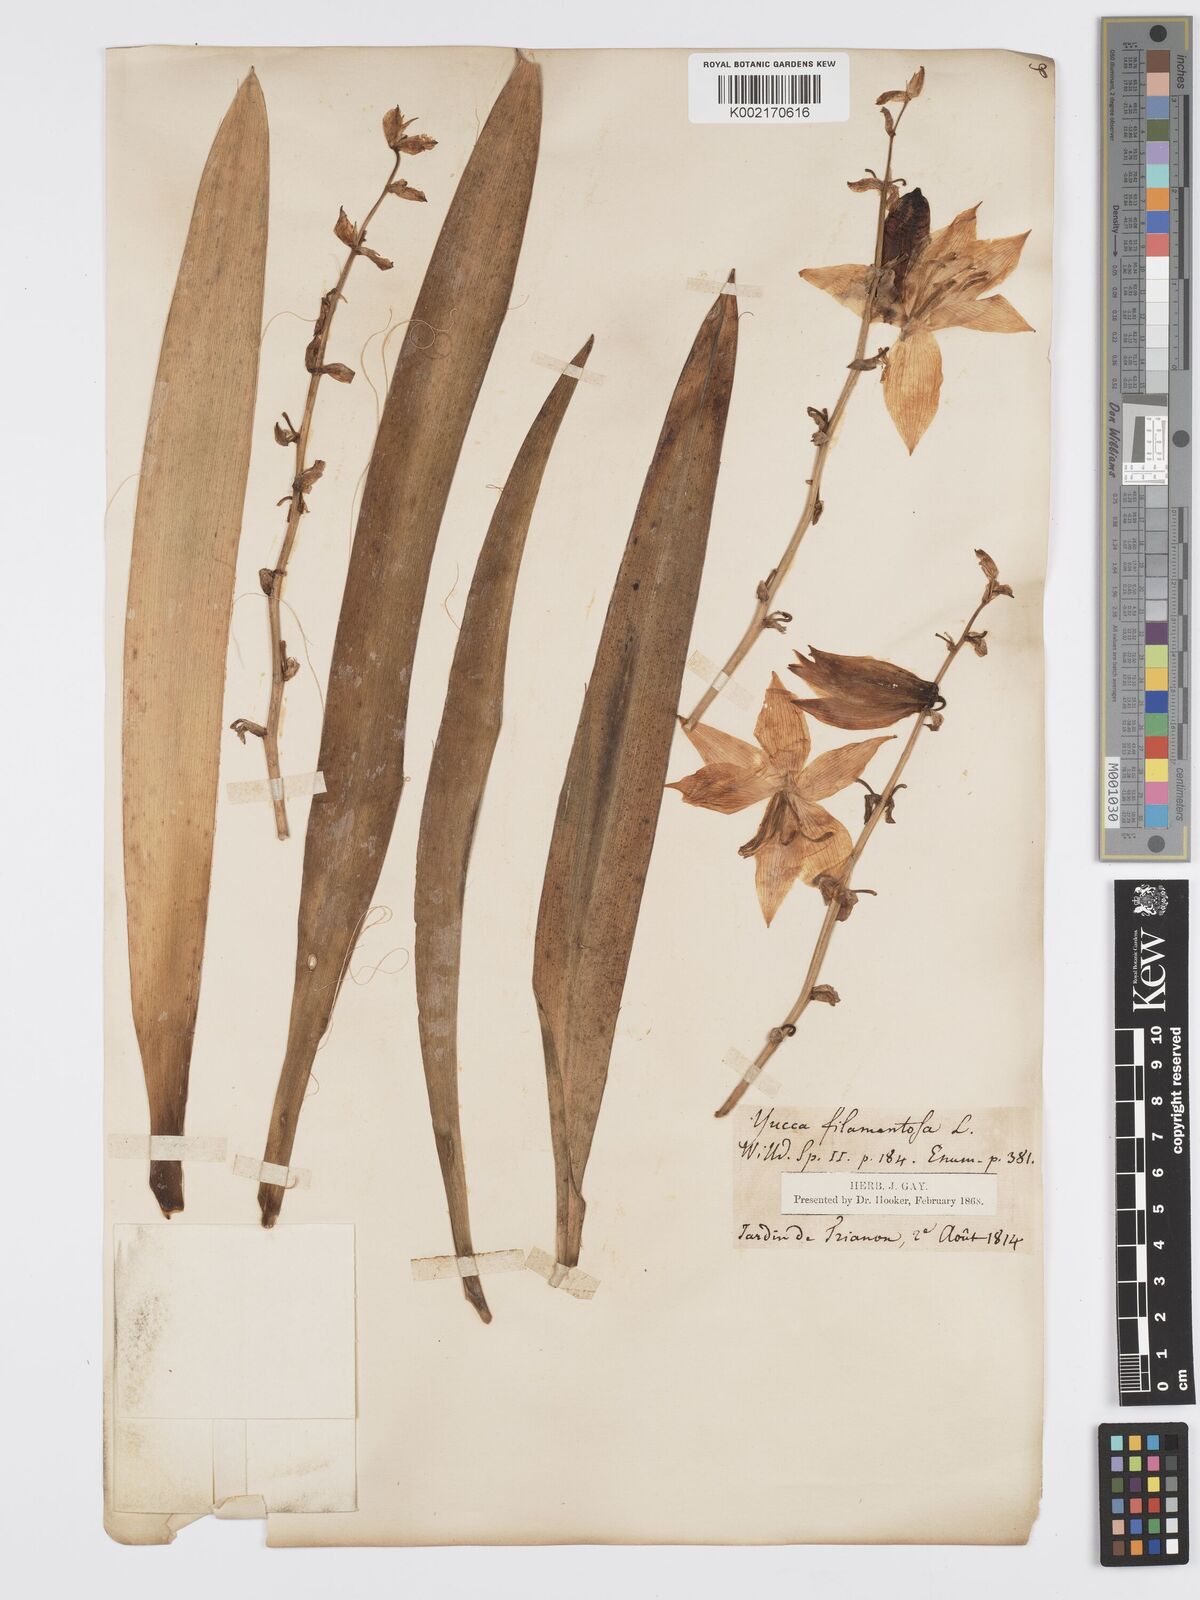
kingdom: Plantae
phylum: Tracheophyta
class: Liliopsida
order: Asparagales
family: Asparagaceae
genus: Yucca
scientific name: Yucca filamentosa
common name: Adam's-needle
